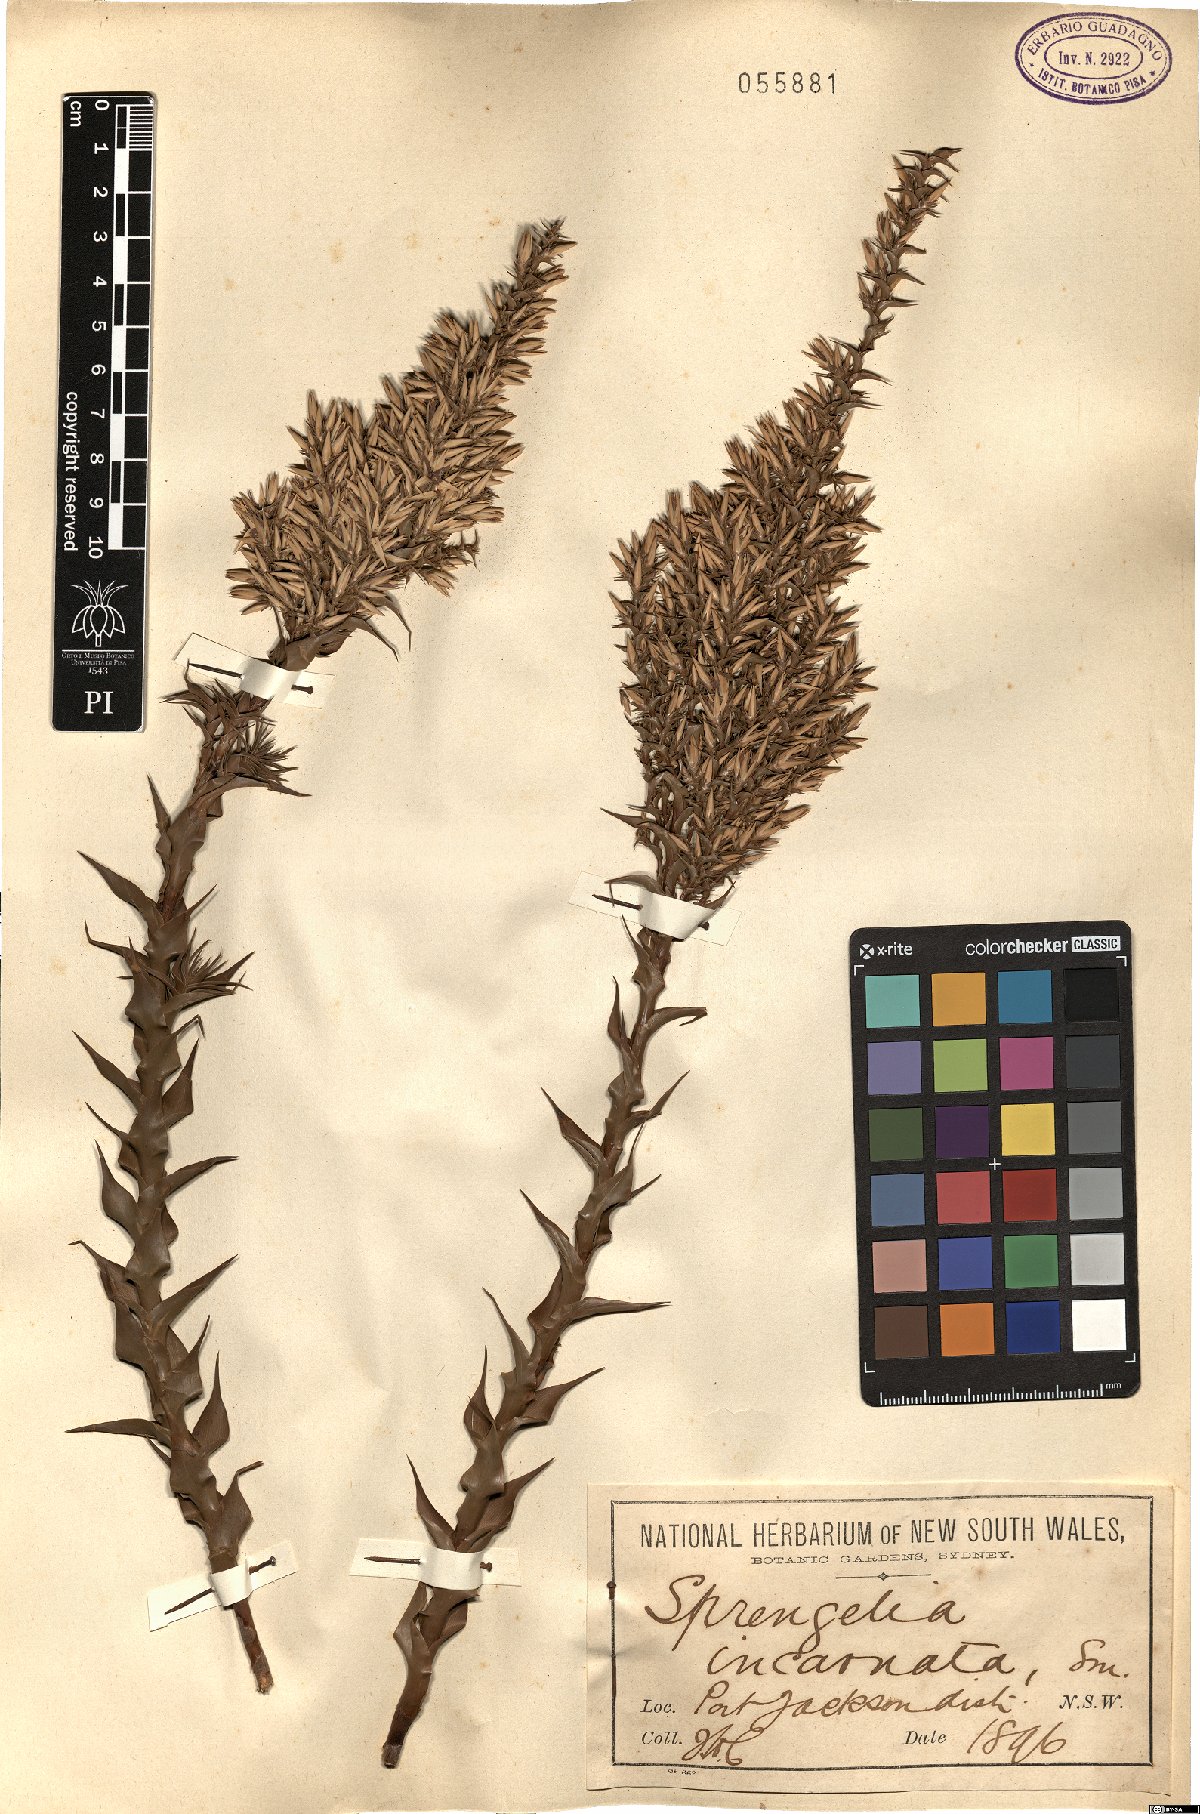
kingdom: Plantae
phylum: Tracheophyta
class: Magnoliopsida
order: Ericales
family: Ericaceae
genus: Sprengelia
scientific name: Sprengelia incarnata
